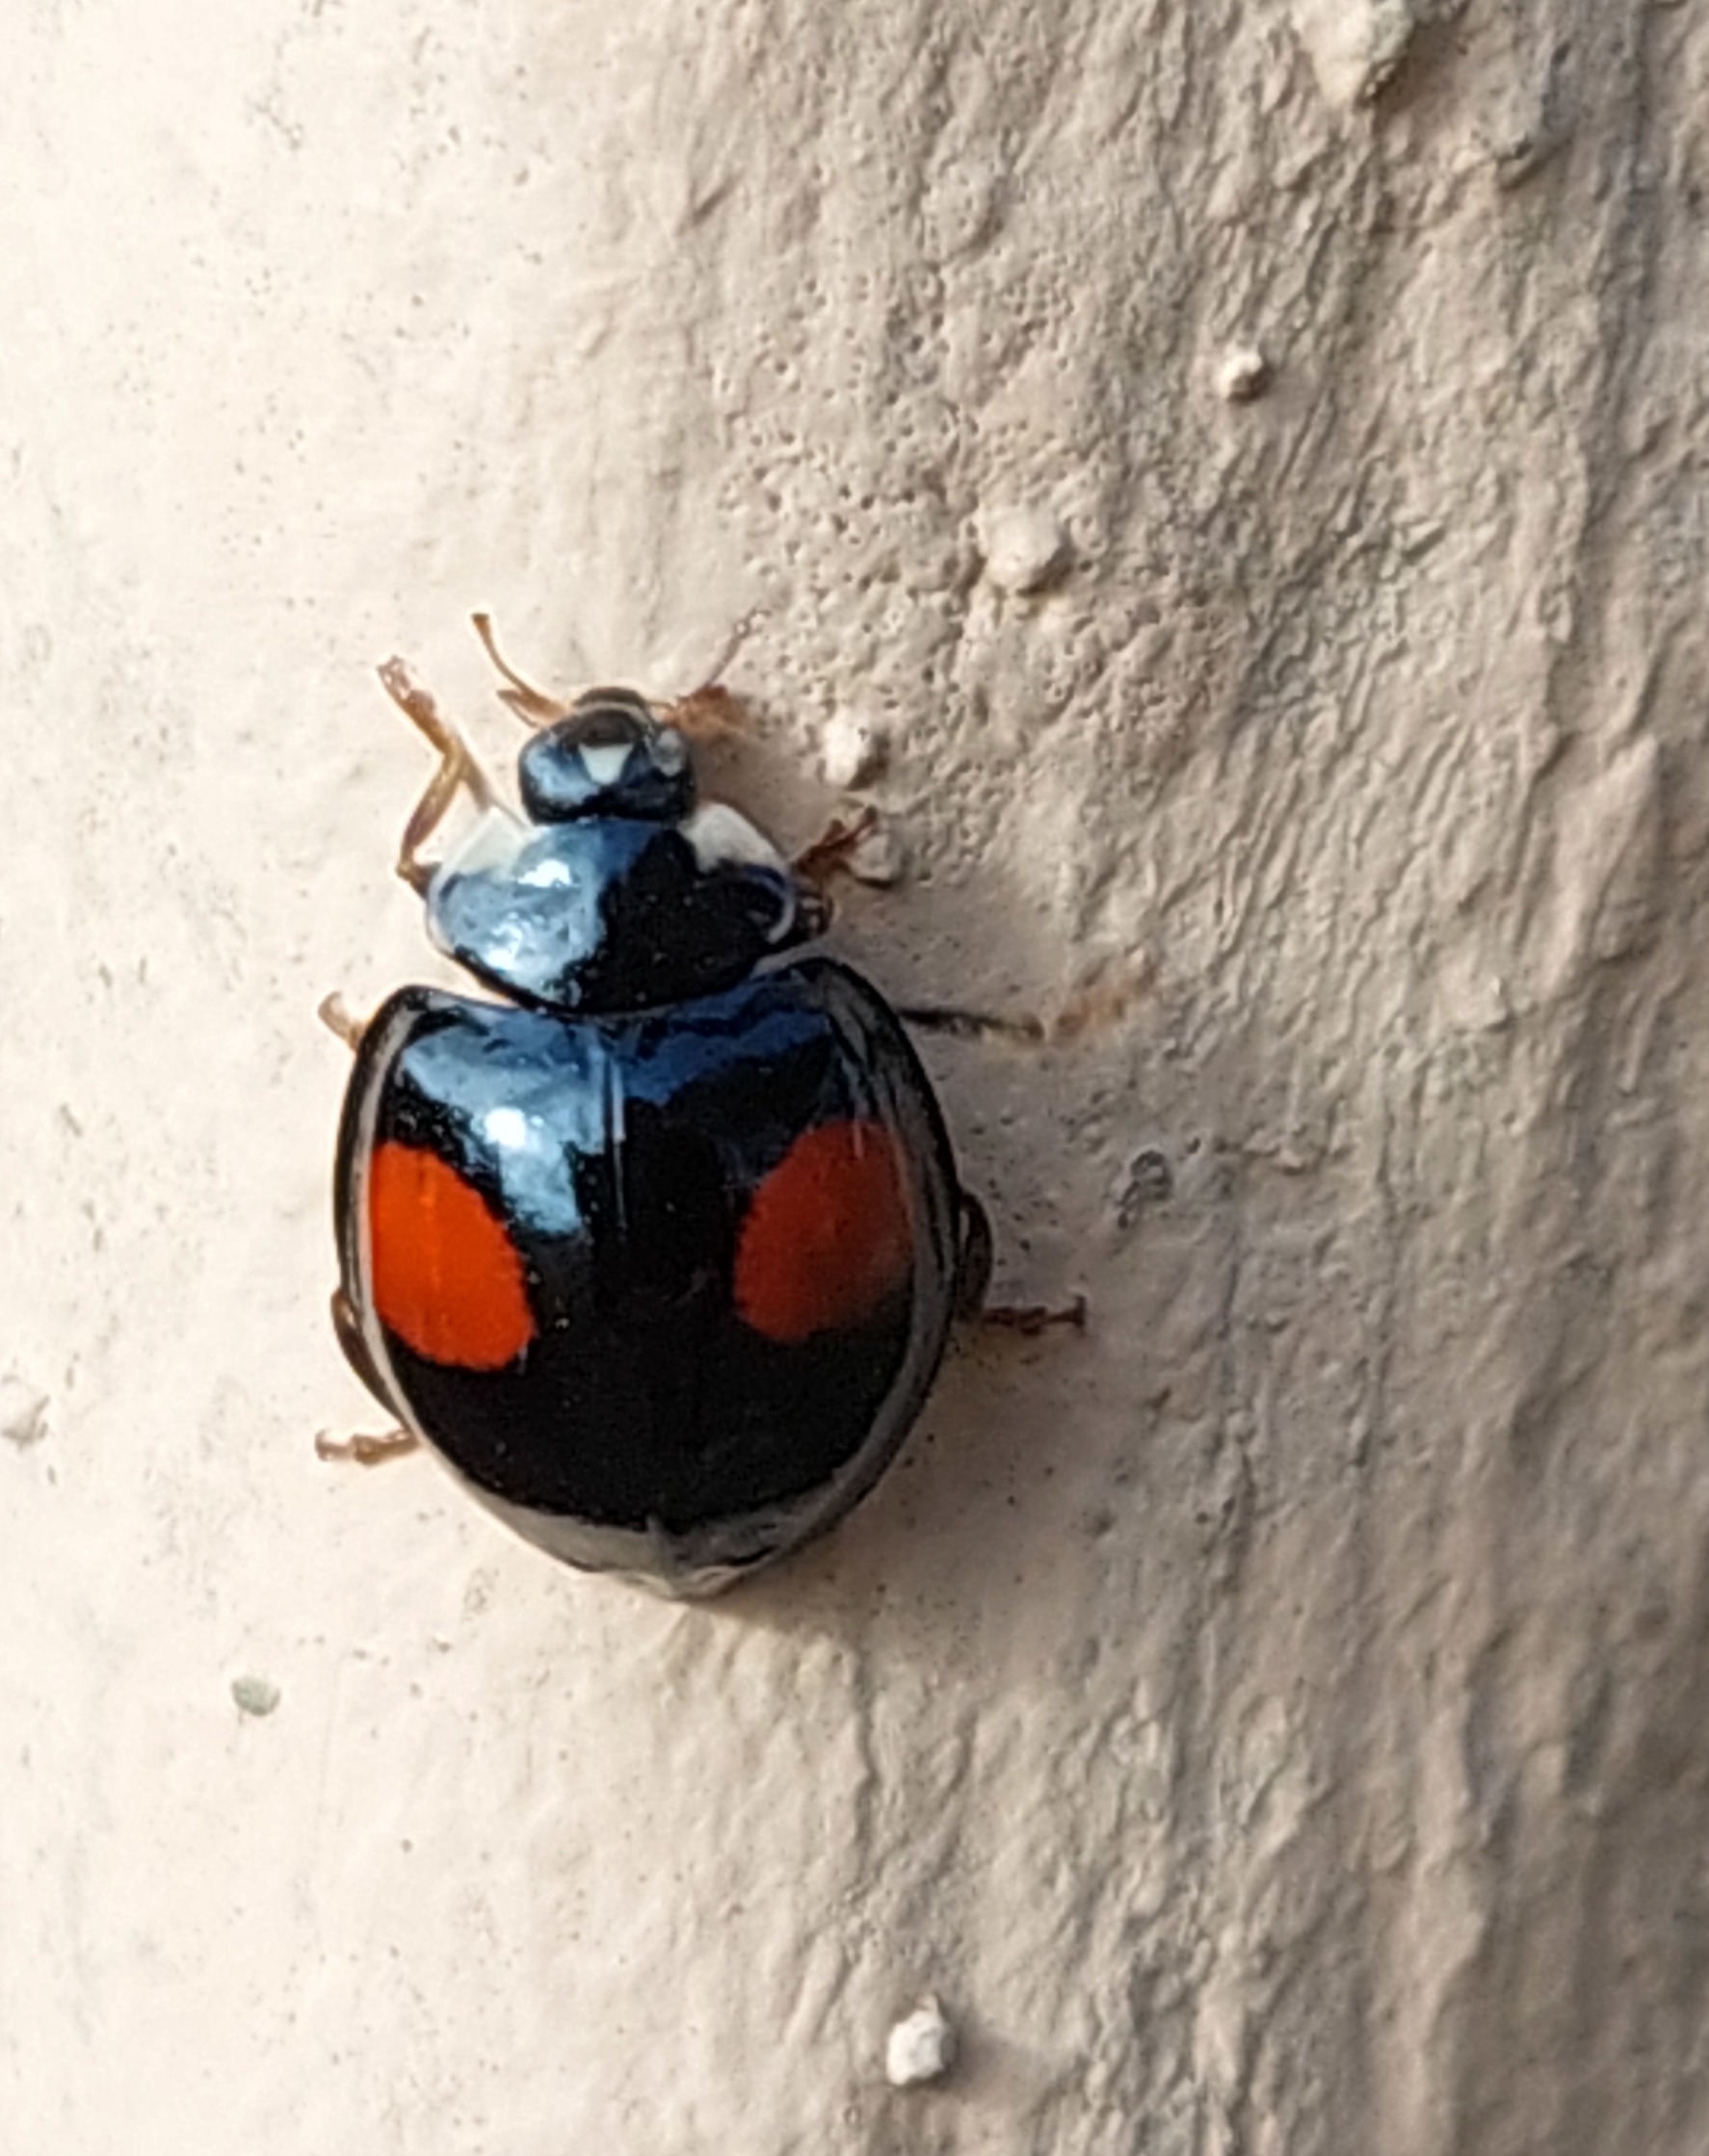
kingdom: Animalia
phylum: Arthropoda
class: Insecta
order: Coleoptera
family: Coccinellidae
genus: Harmonia
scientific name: Harmonia axyridis
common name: Harlekinmariehøne
